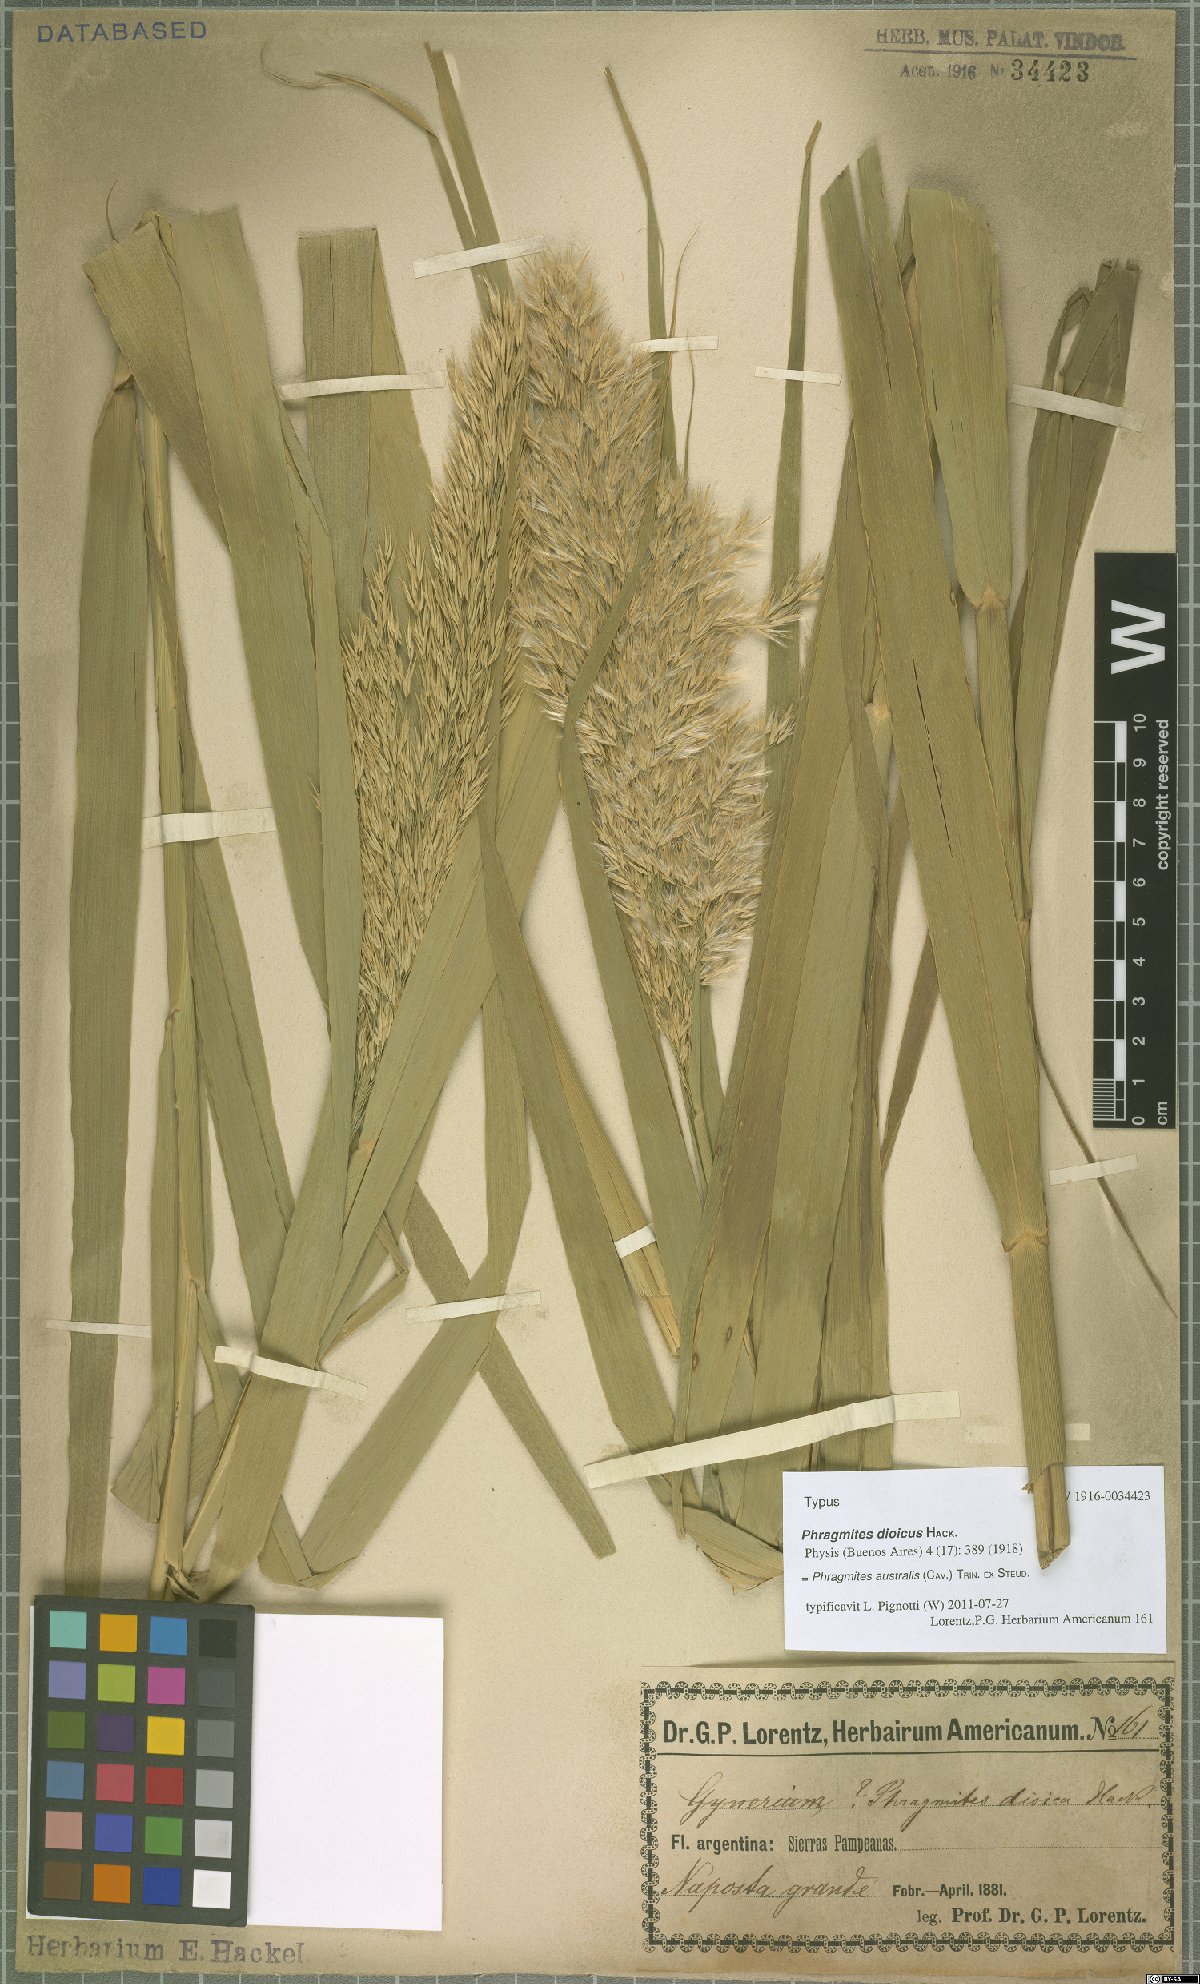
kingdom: Plantae
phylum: Tracheophyta
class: Liliopsida
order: Poales
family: Poaceae
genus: Phragmites
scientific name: Phragmites australis
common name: Common reed
